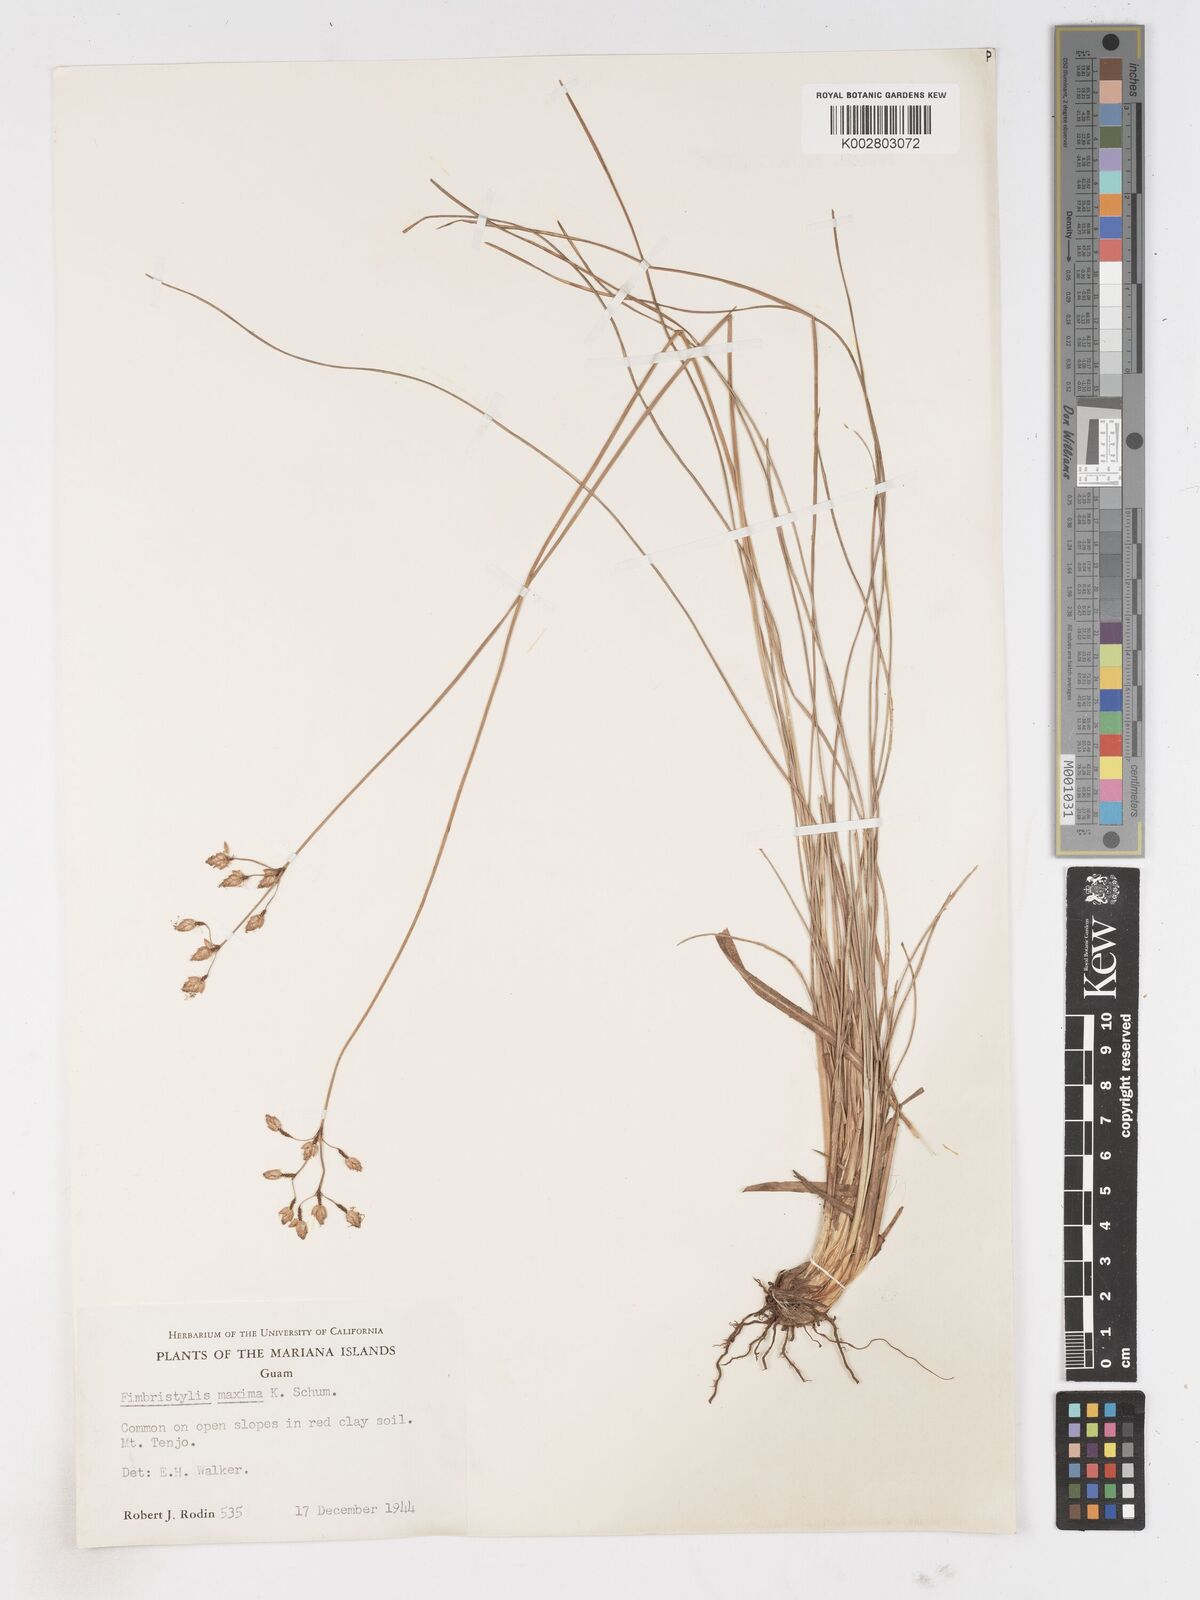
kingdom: Plantae
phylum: Tracheophyta
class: Liliopsida
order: Poales
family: Cyperaceae
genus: Fimbristylis
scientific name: Fimbristylis dichotoma
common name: Forked fimbry
